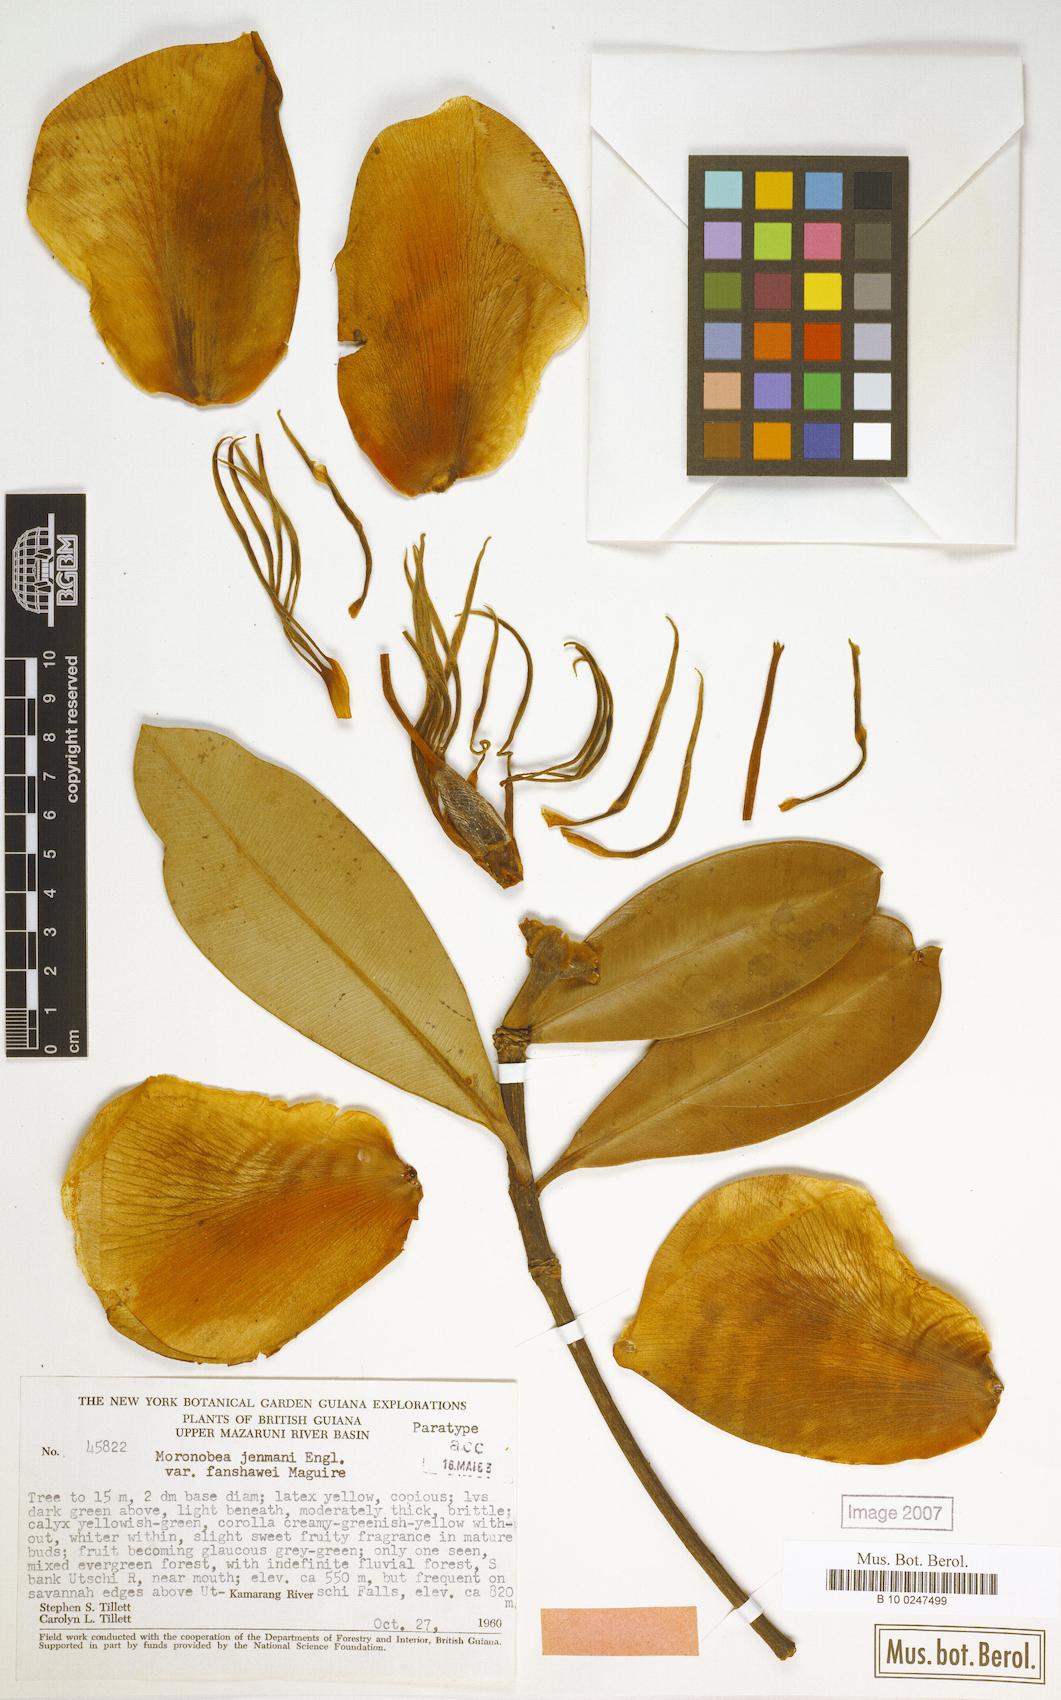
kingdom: Plantae
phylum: Tracheophyta
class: Magnoliopsida
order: Malpighiales
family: Clusiaceae
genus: Moronobea
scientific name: Moronobea jenmanii
